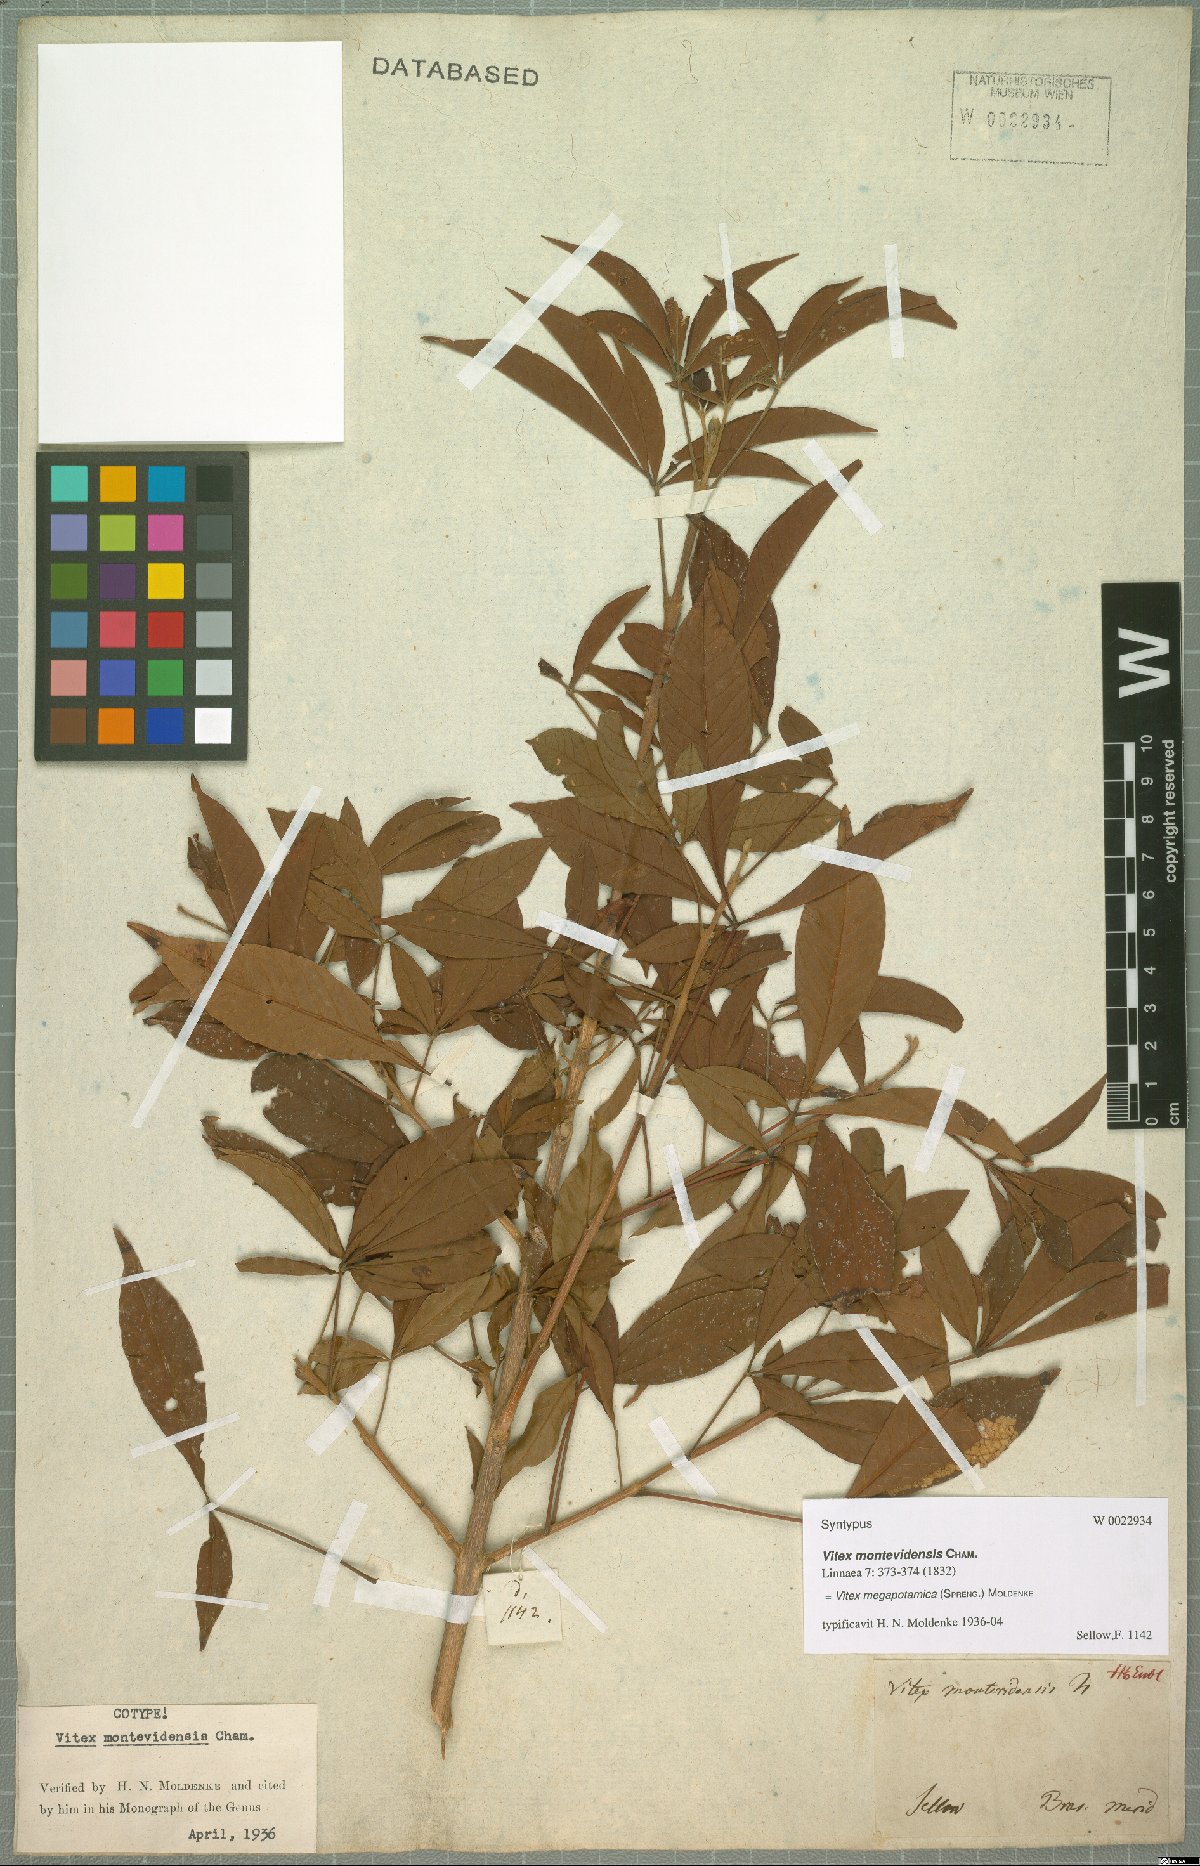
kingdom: Plantae
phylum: Tracheophyta
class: Magnoliopsida
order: Lamiales
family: Lamiaceae
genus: Vitex
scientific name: Vitex megapotamica
